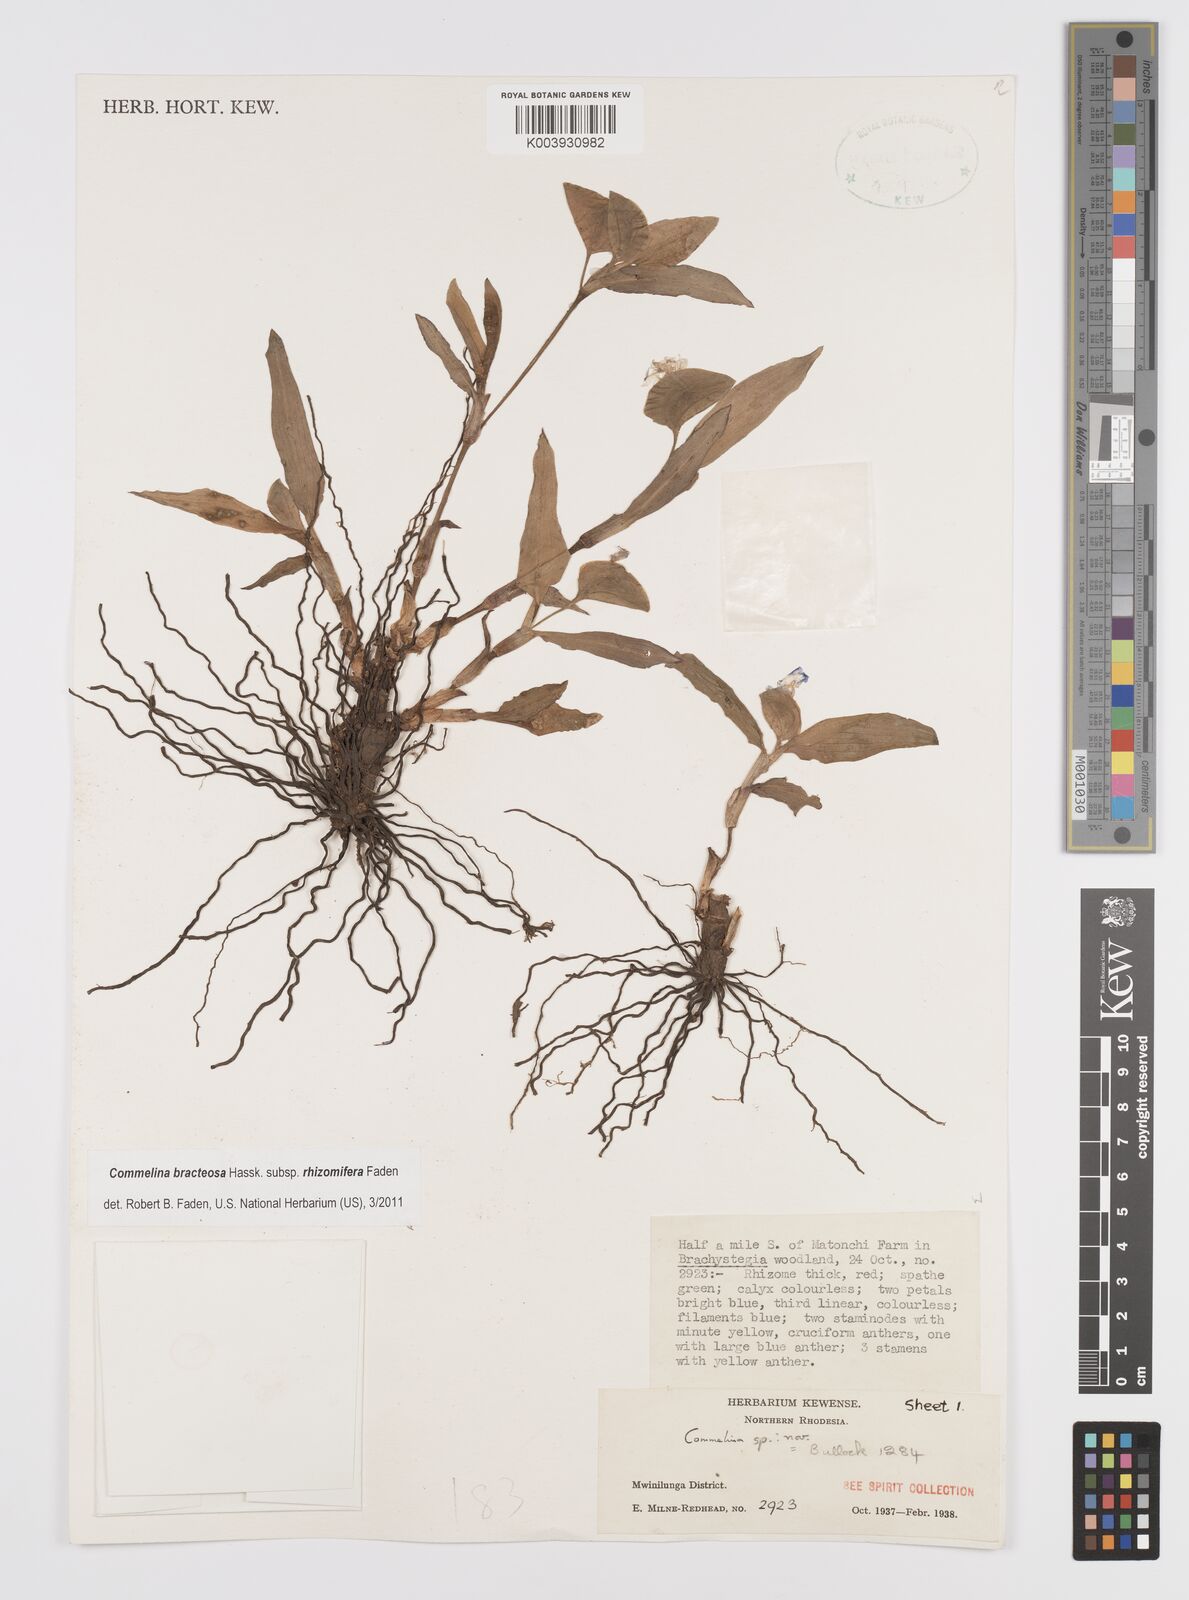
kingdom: Plantae
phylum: Tracheophyta
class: Liliopsida
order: Commelinales
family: Commelinaceae
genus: Commelina
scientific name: Commelina bracteosa
